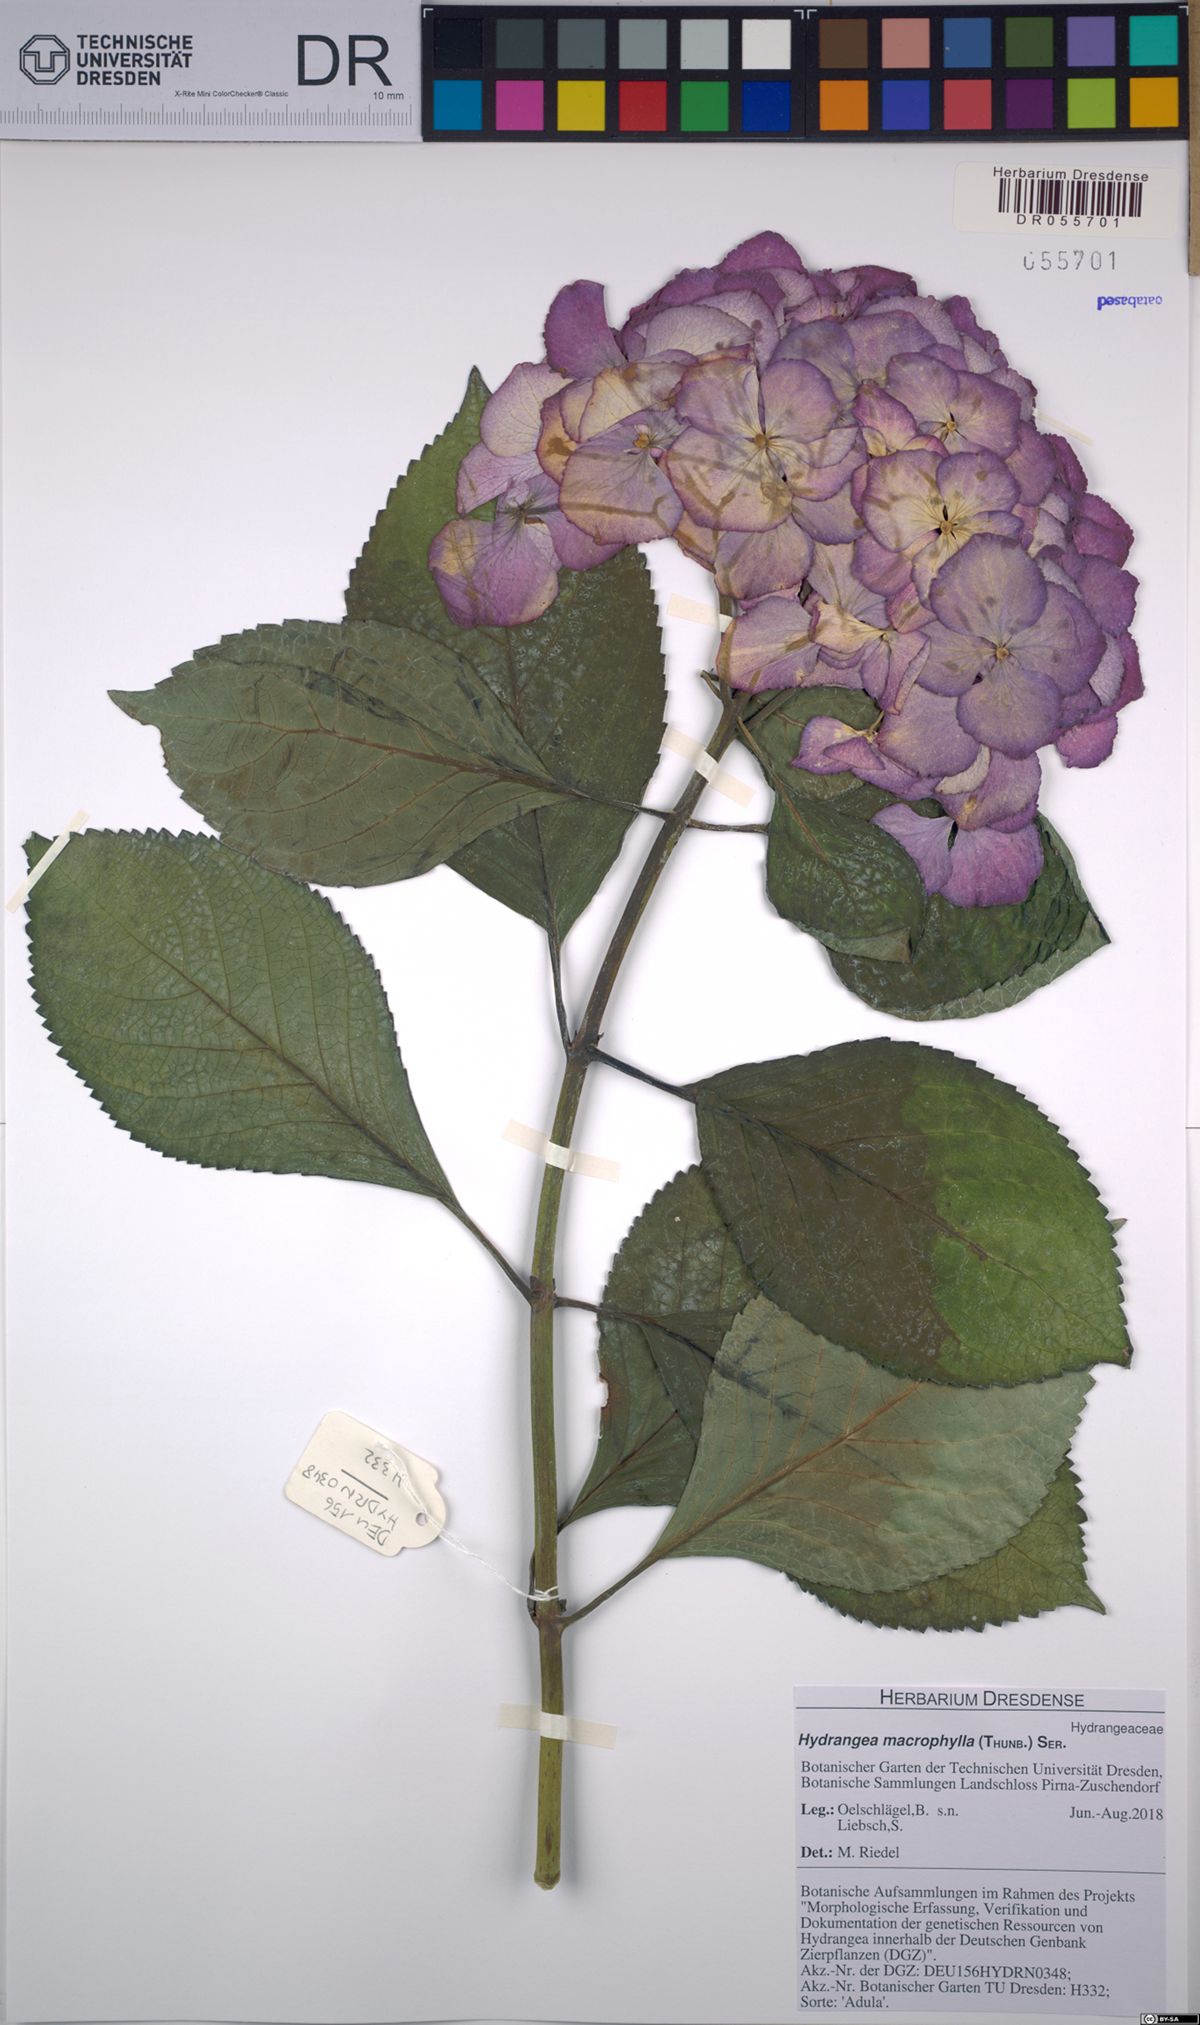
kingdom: Plantae
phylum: Tracheophyta
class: Magnoliopsida
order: Cornales
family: Hydrangeaceae
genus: Hydrangea
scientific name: Hydrangea macrophylla
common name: Hydrangea
